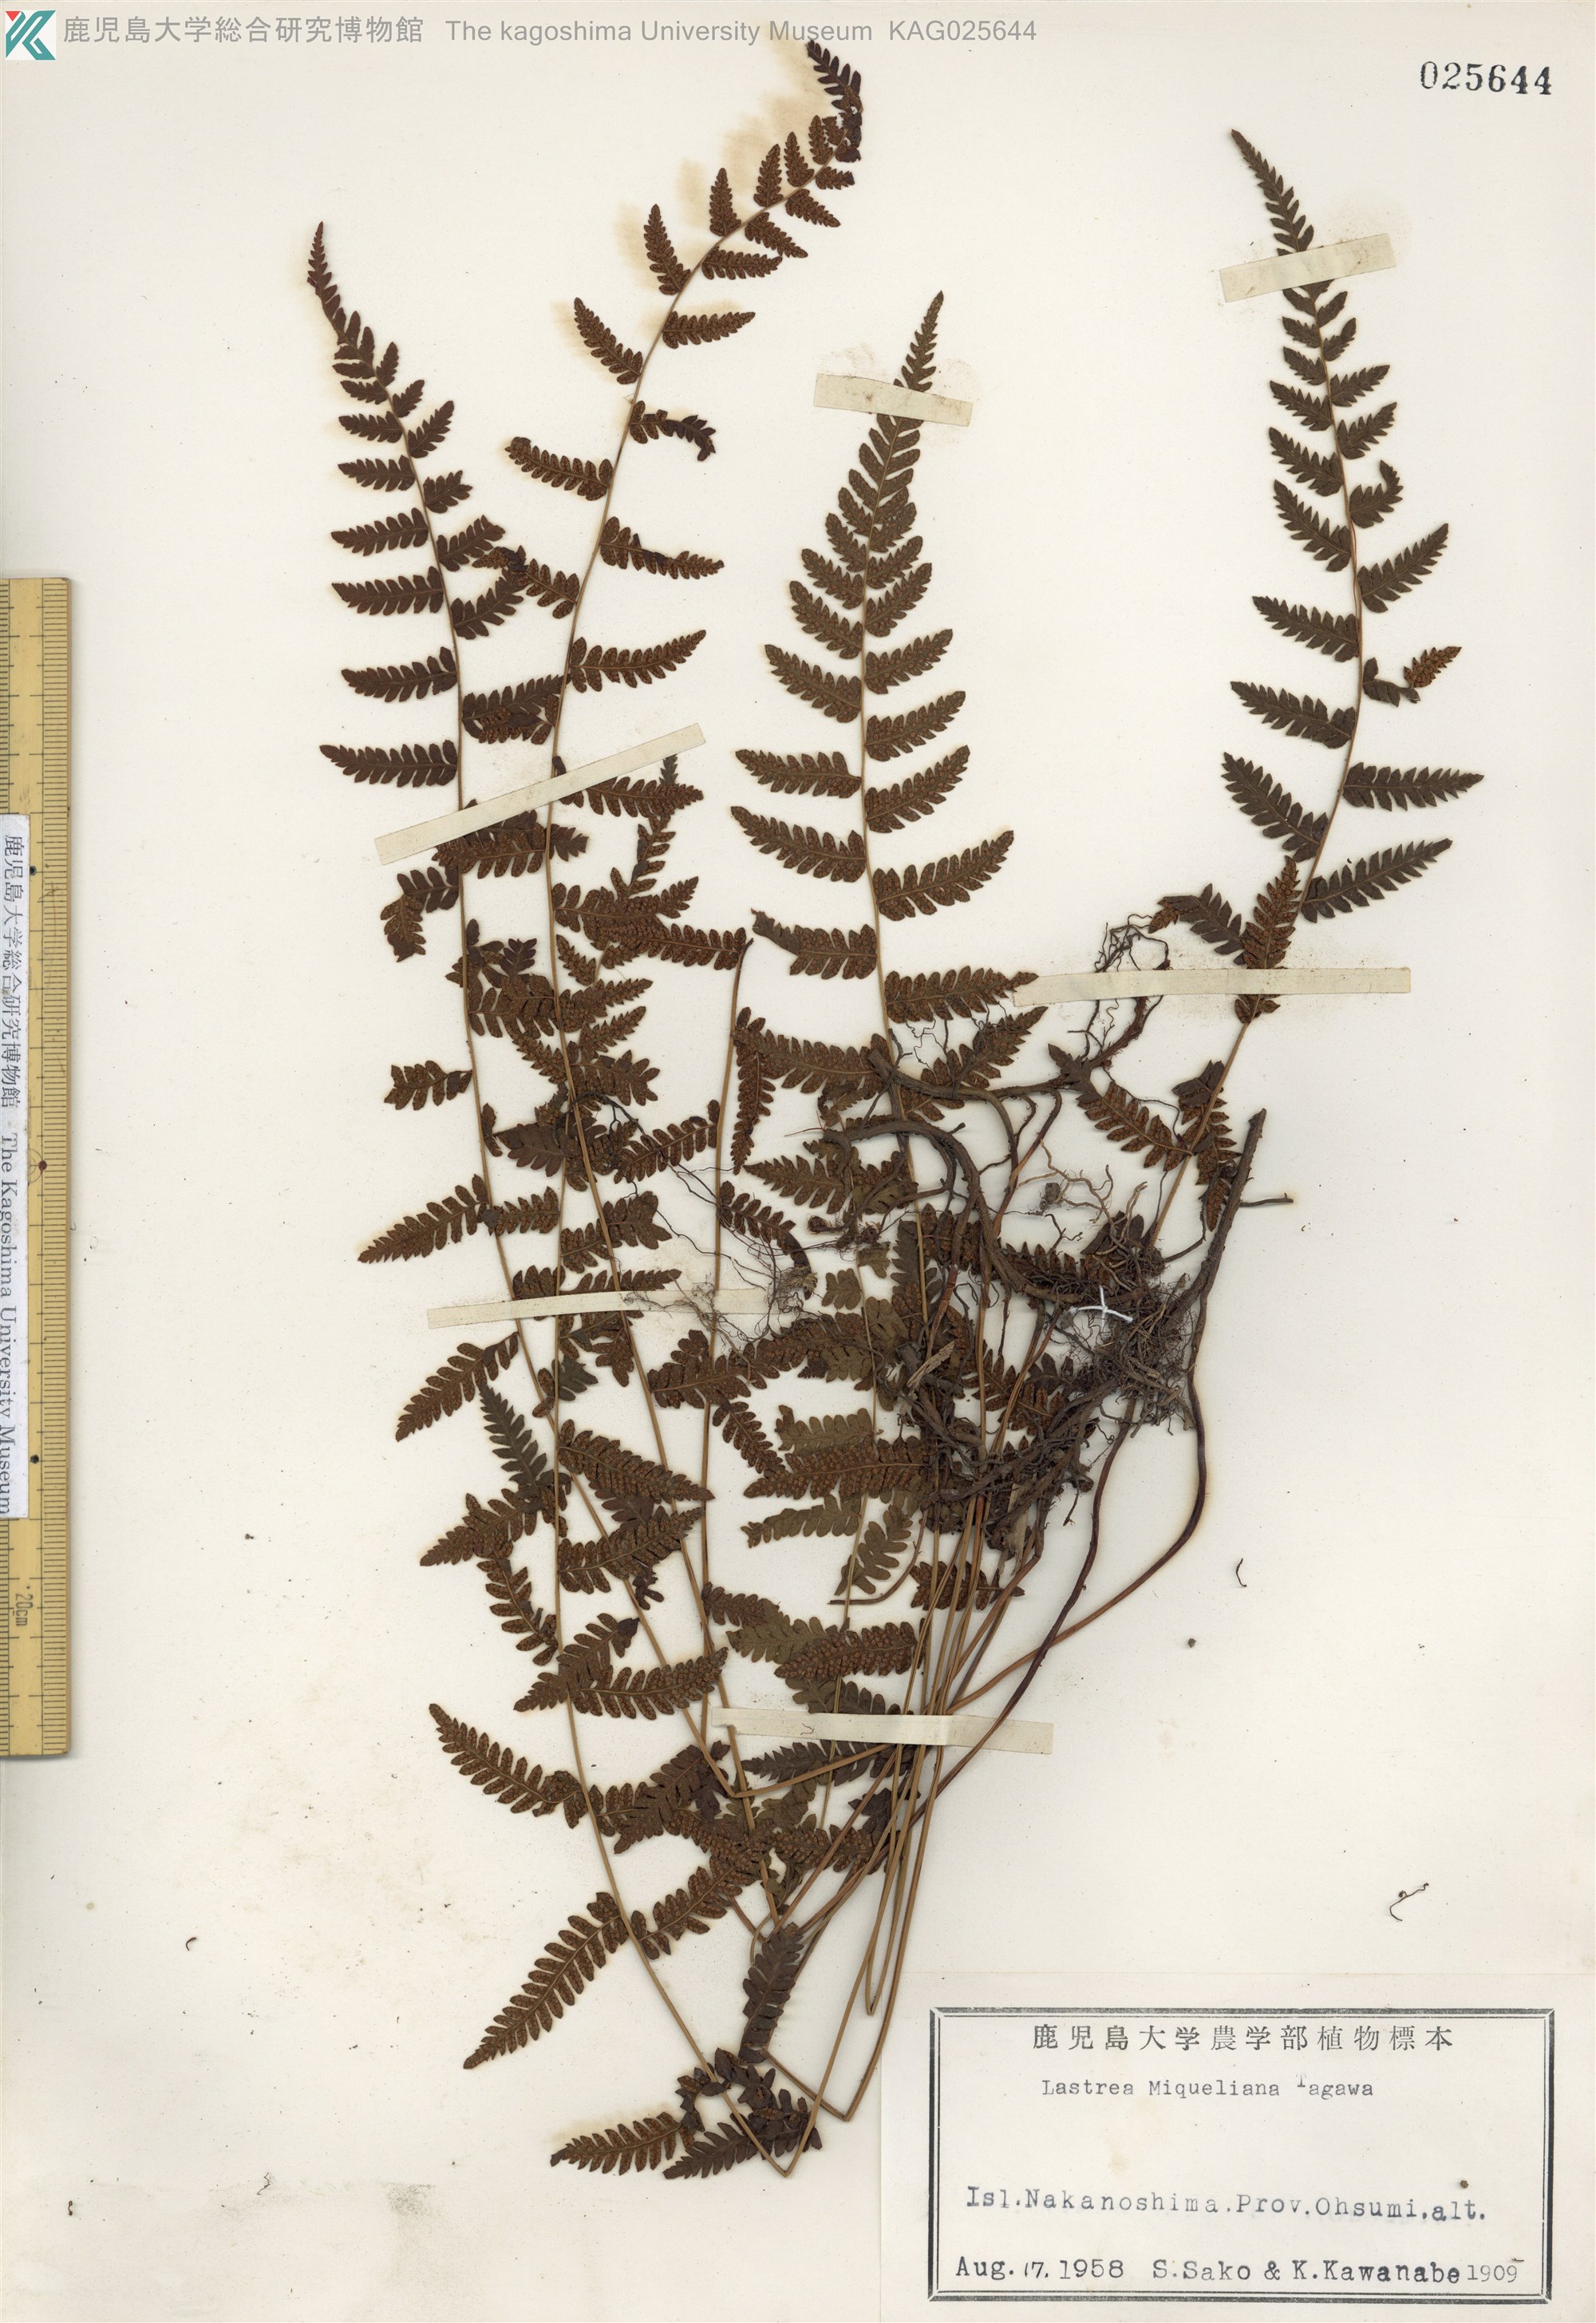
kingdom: Plantae
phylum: Tracheophyta
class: Polypodiopsida
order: Polypodiales
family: Thelypteridaceae
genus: Amauropelta
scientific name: Amauropelta angustifrons
